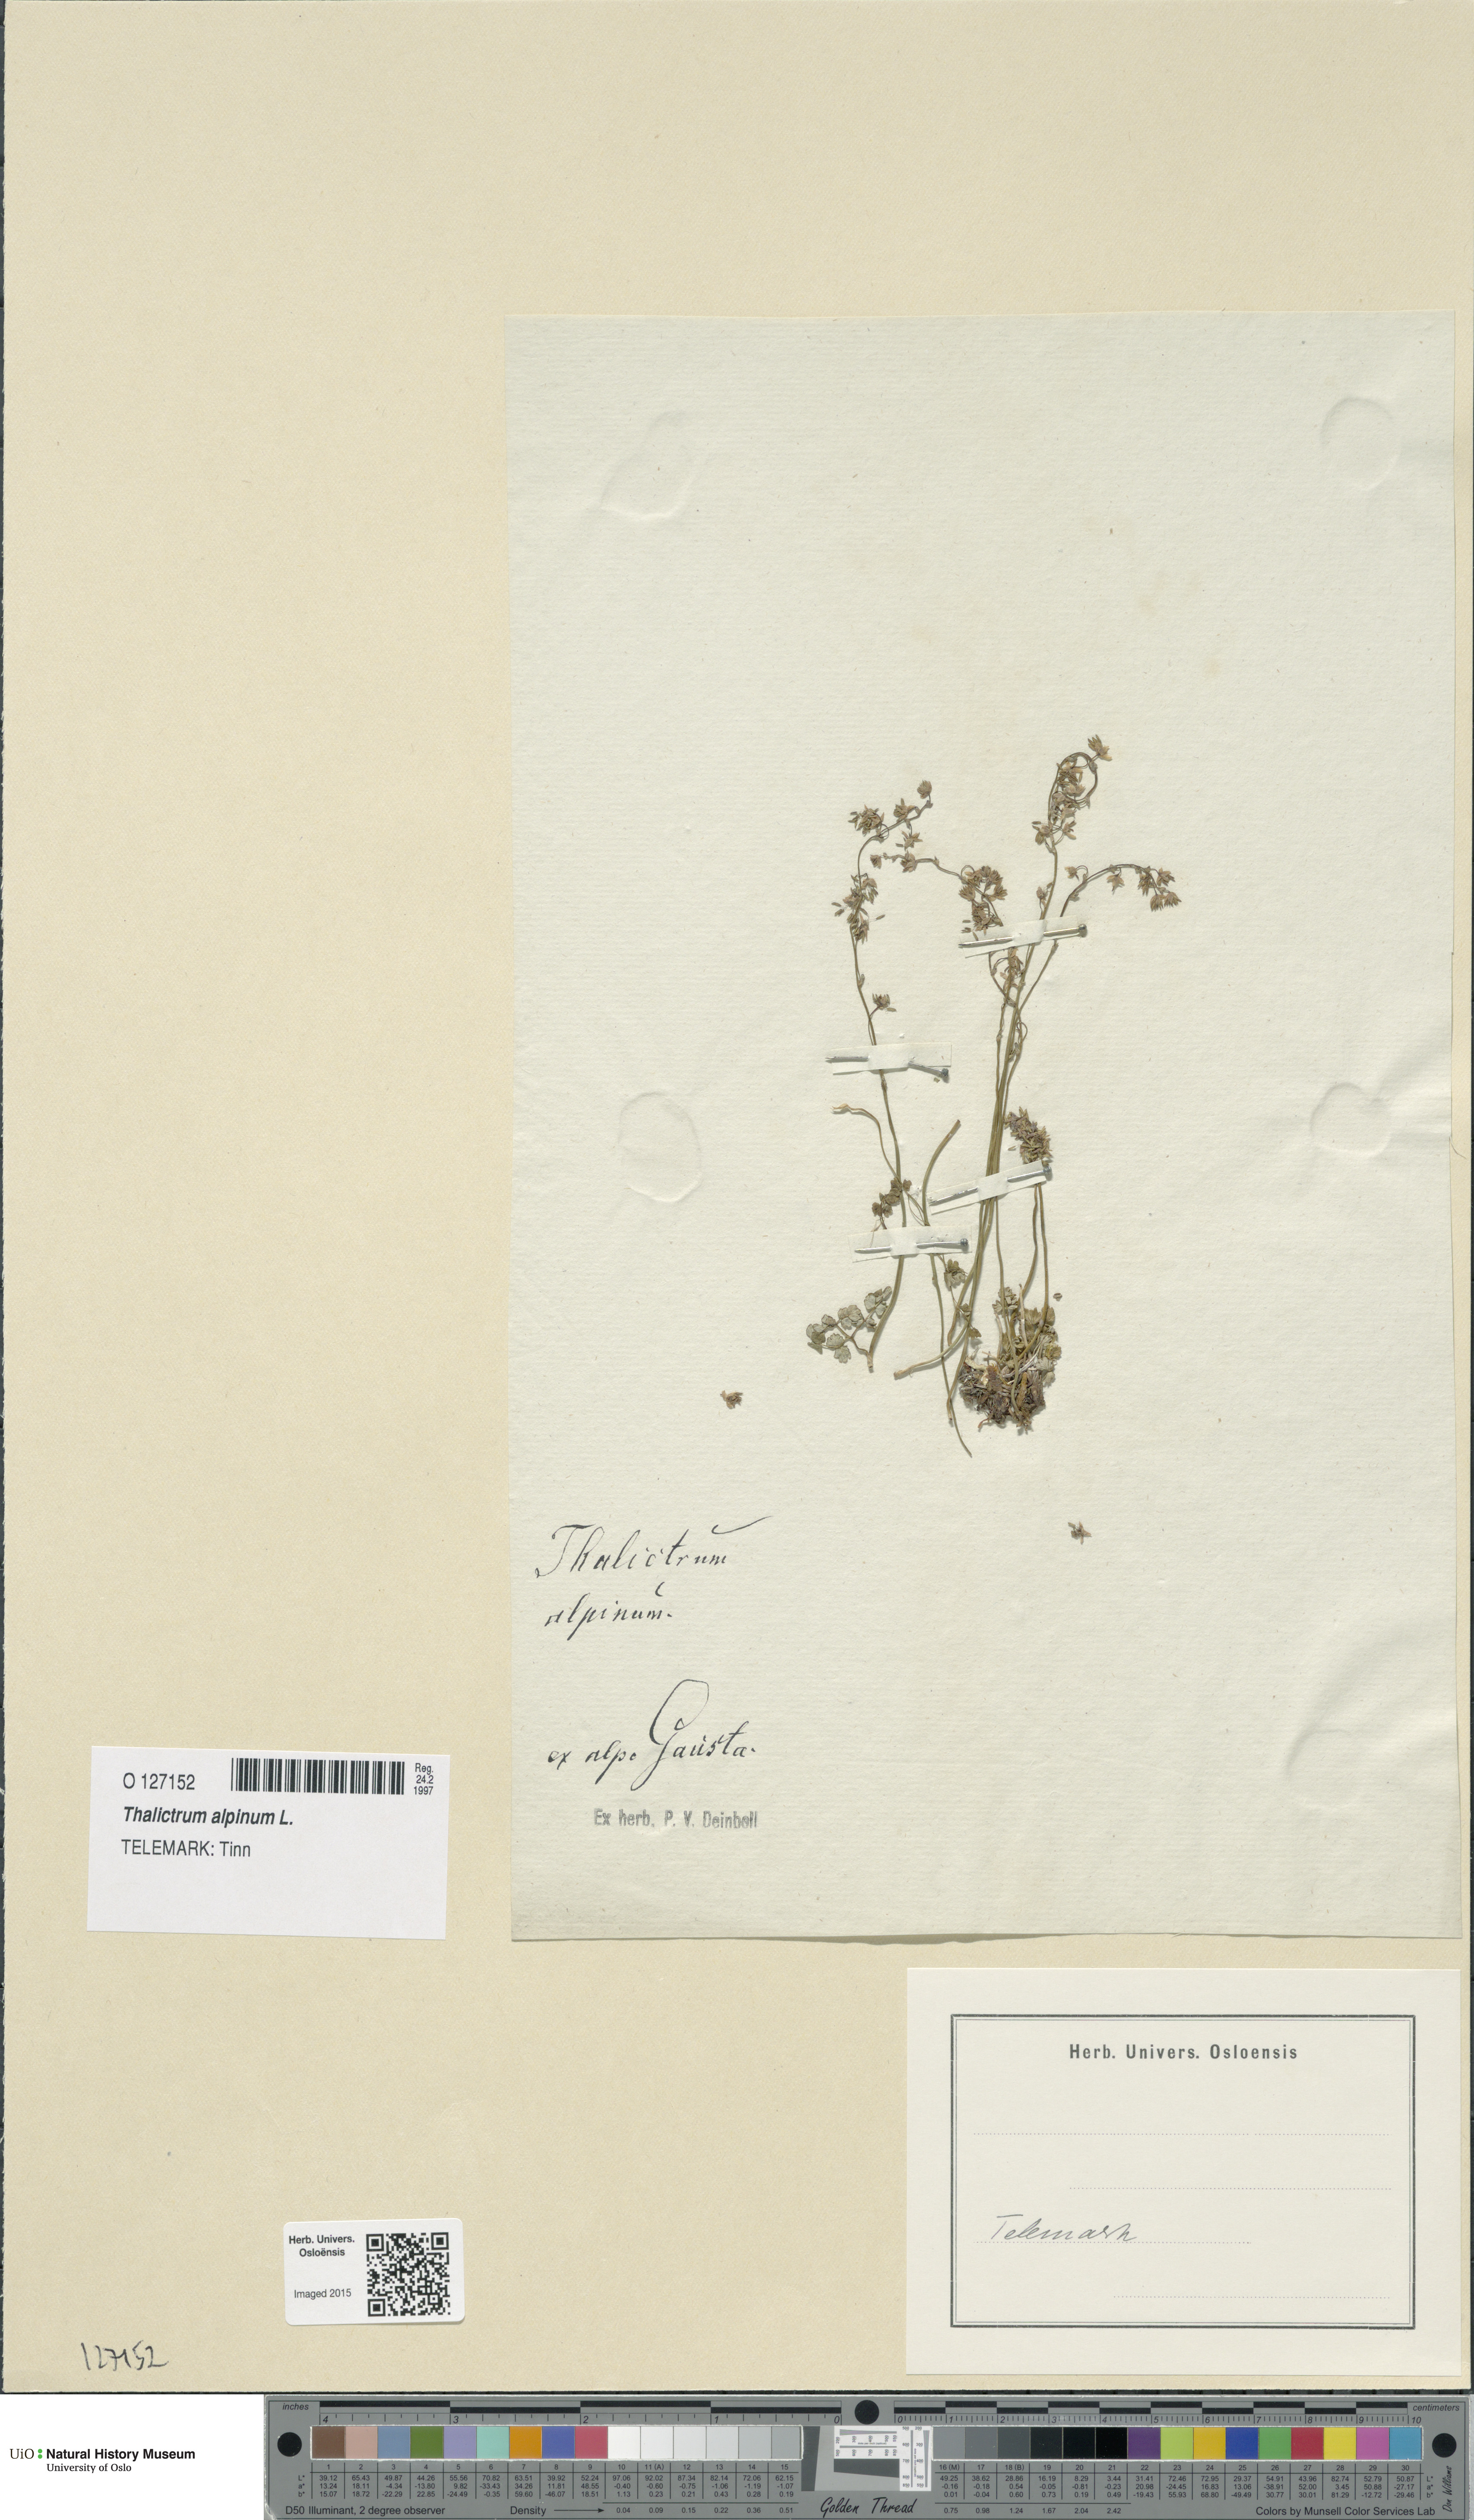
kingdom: Plantae
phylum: Tracheophyta
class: Magnoliopsida
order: Ranunculales
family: Ranunculaceae
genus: Thalictrum
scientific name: Thalictrum alpinum
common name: Alpine meadow-rue
